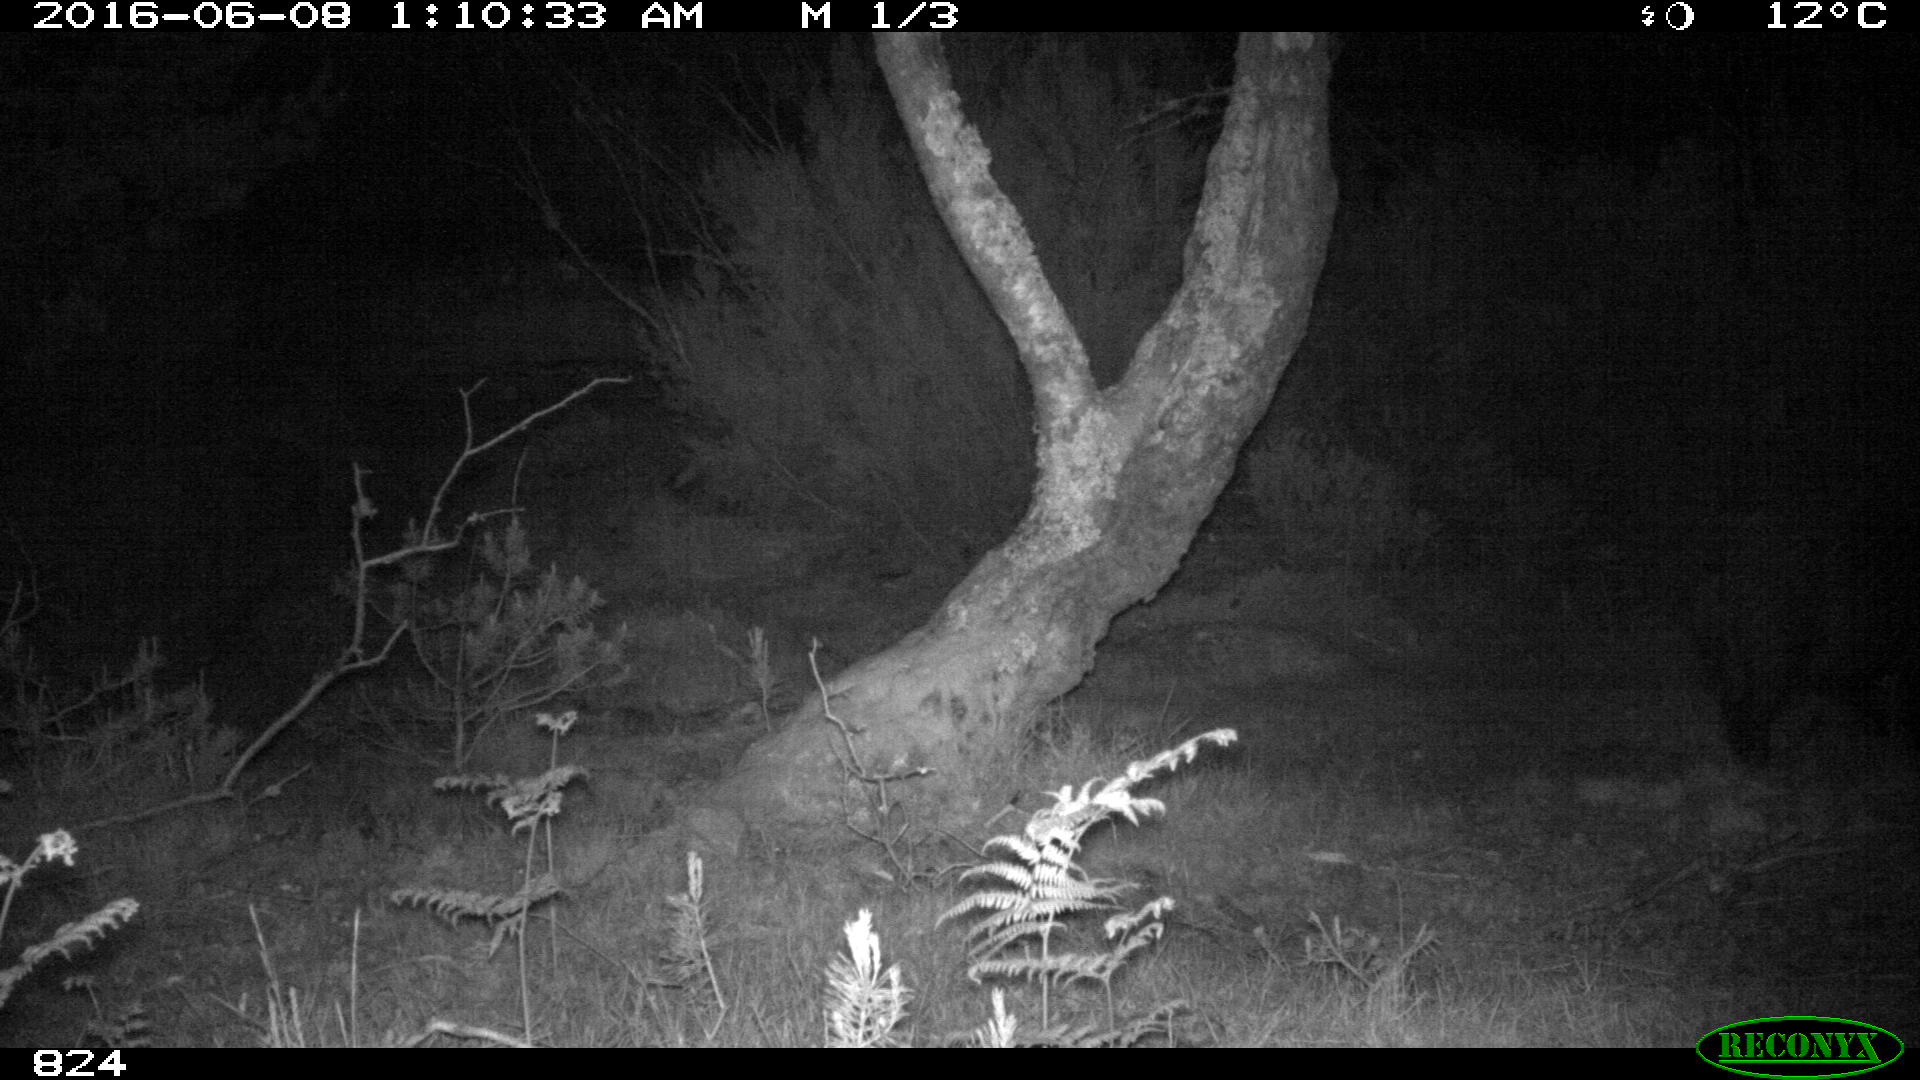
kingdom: Animalia
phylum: Chordata
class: Mammalia
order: Artiodactyla
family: Suidae
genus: Sus
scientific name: Sus scrofa
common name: Wild boar
